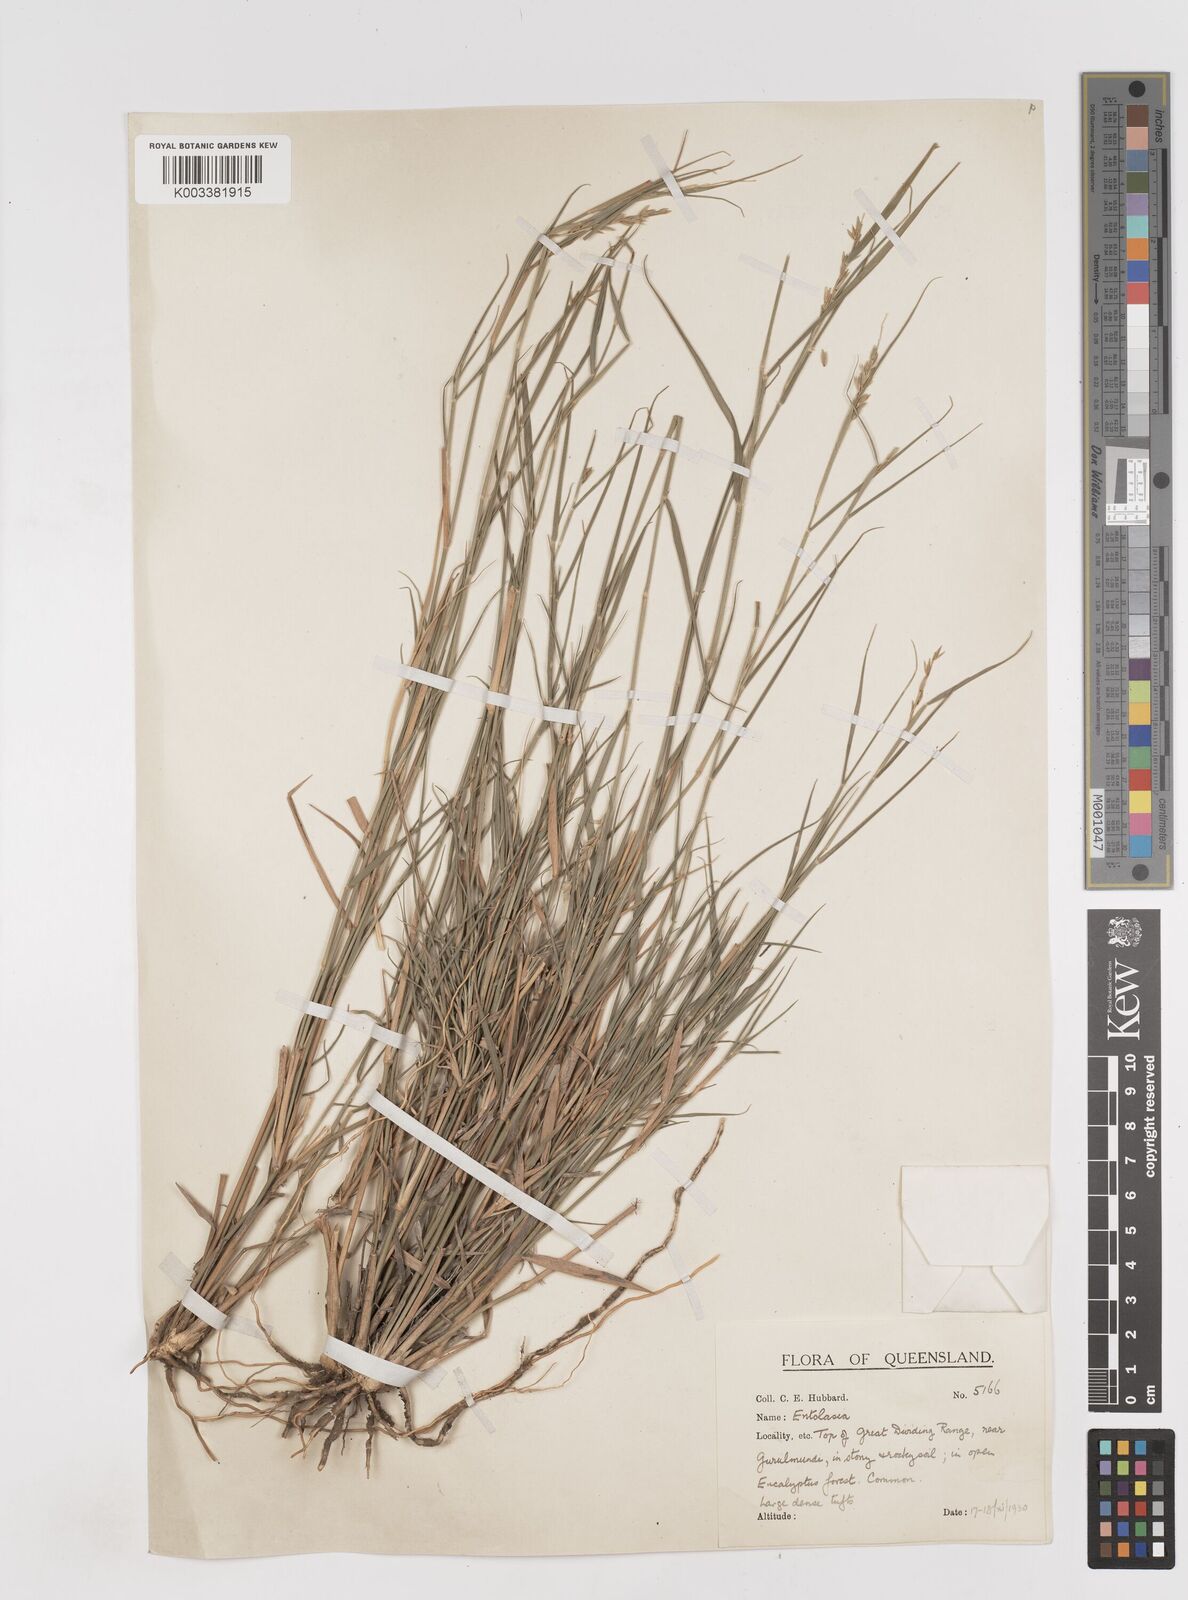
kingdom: Plantae
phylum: Tracheophyta
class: Liliopsida
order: Poales
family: Poaceae
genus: Dimorphochloa
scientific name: Dimorphochloa rigida
